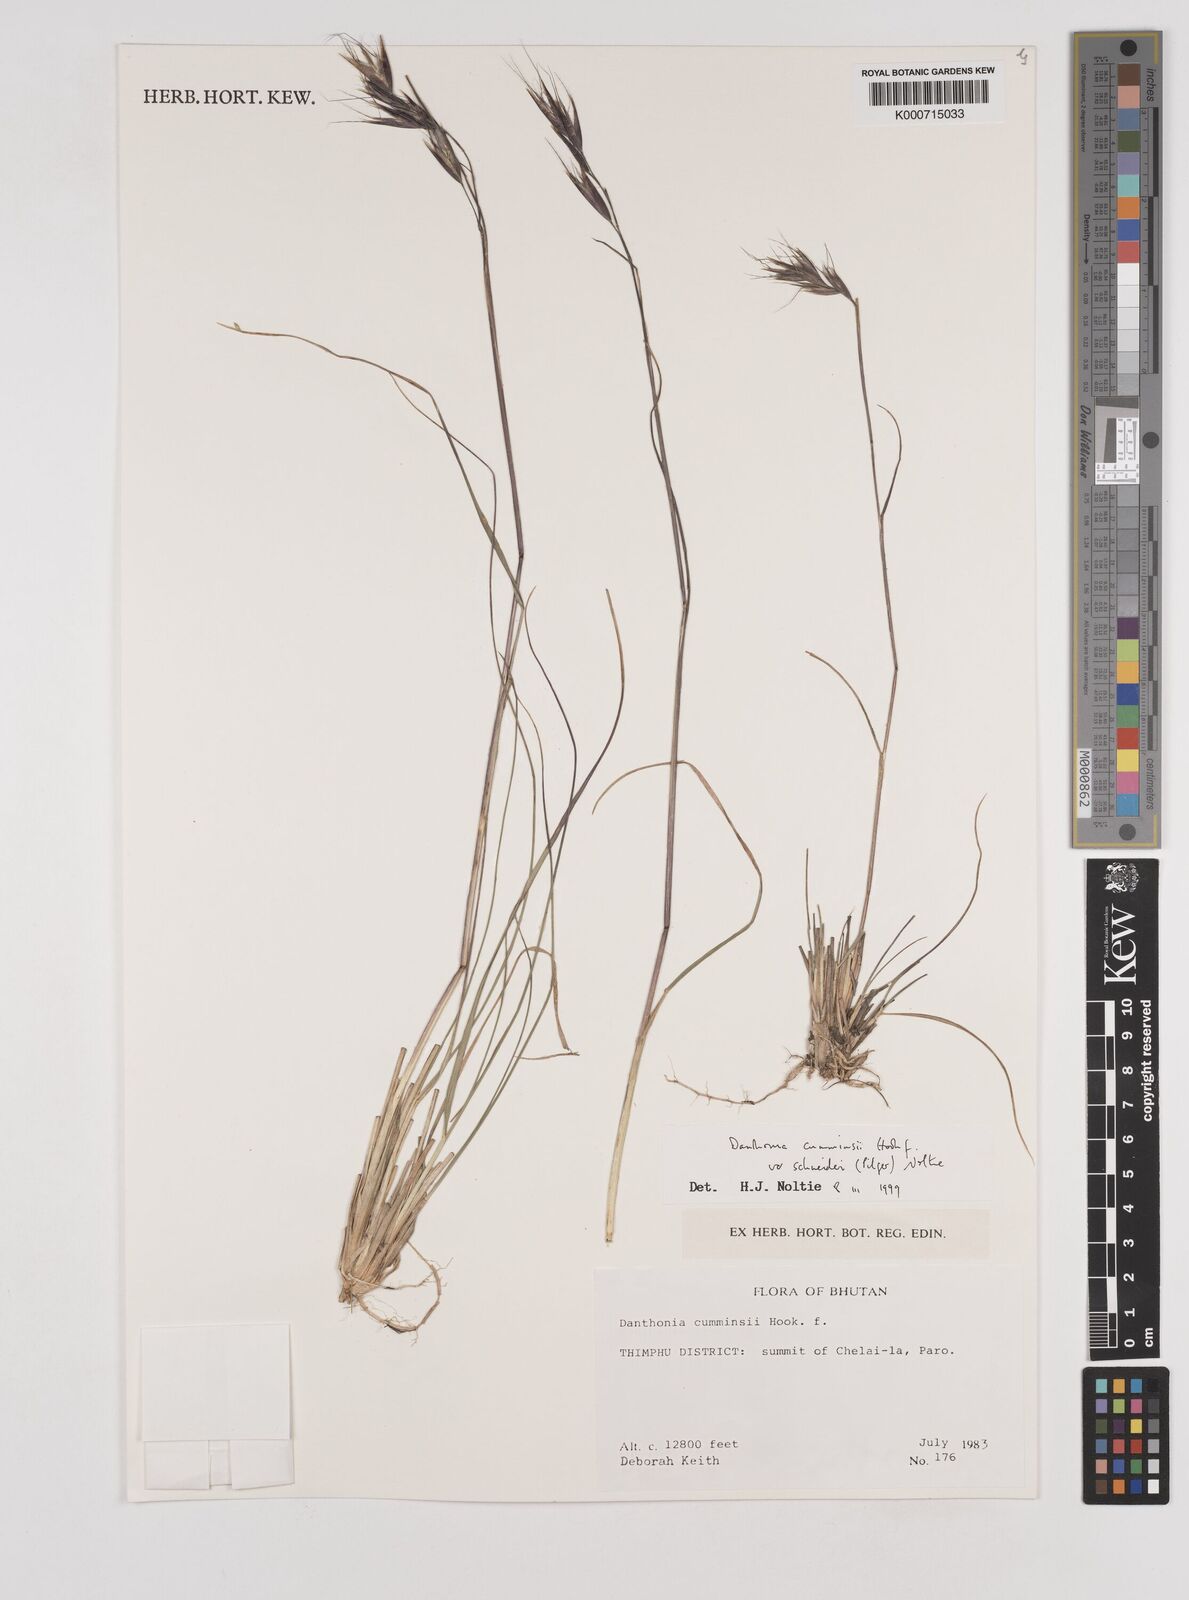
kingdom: Plantae
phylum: Tracheophyta
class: Liliopsida
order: Poales
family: Poaceae
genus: Rytidosperma
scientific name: Rytidosperma
